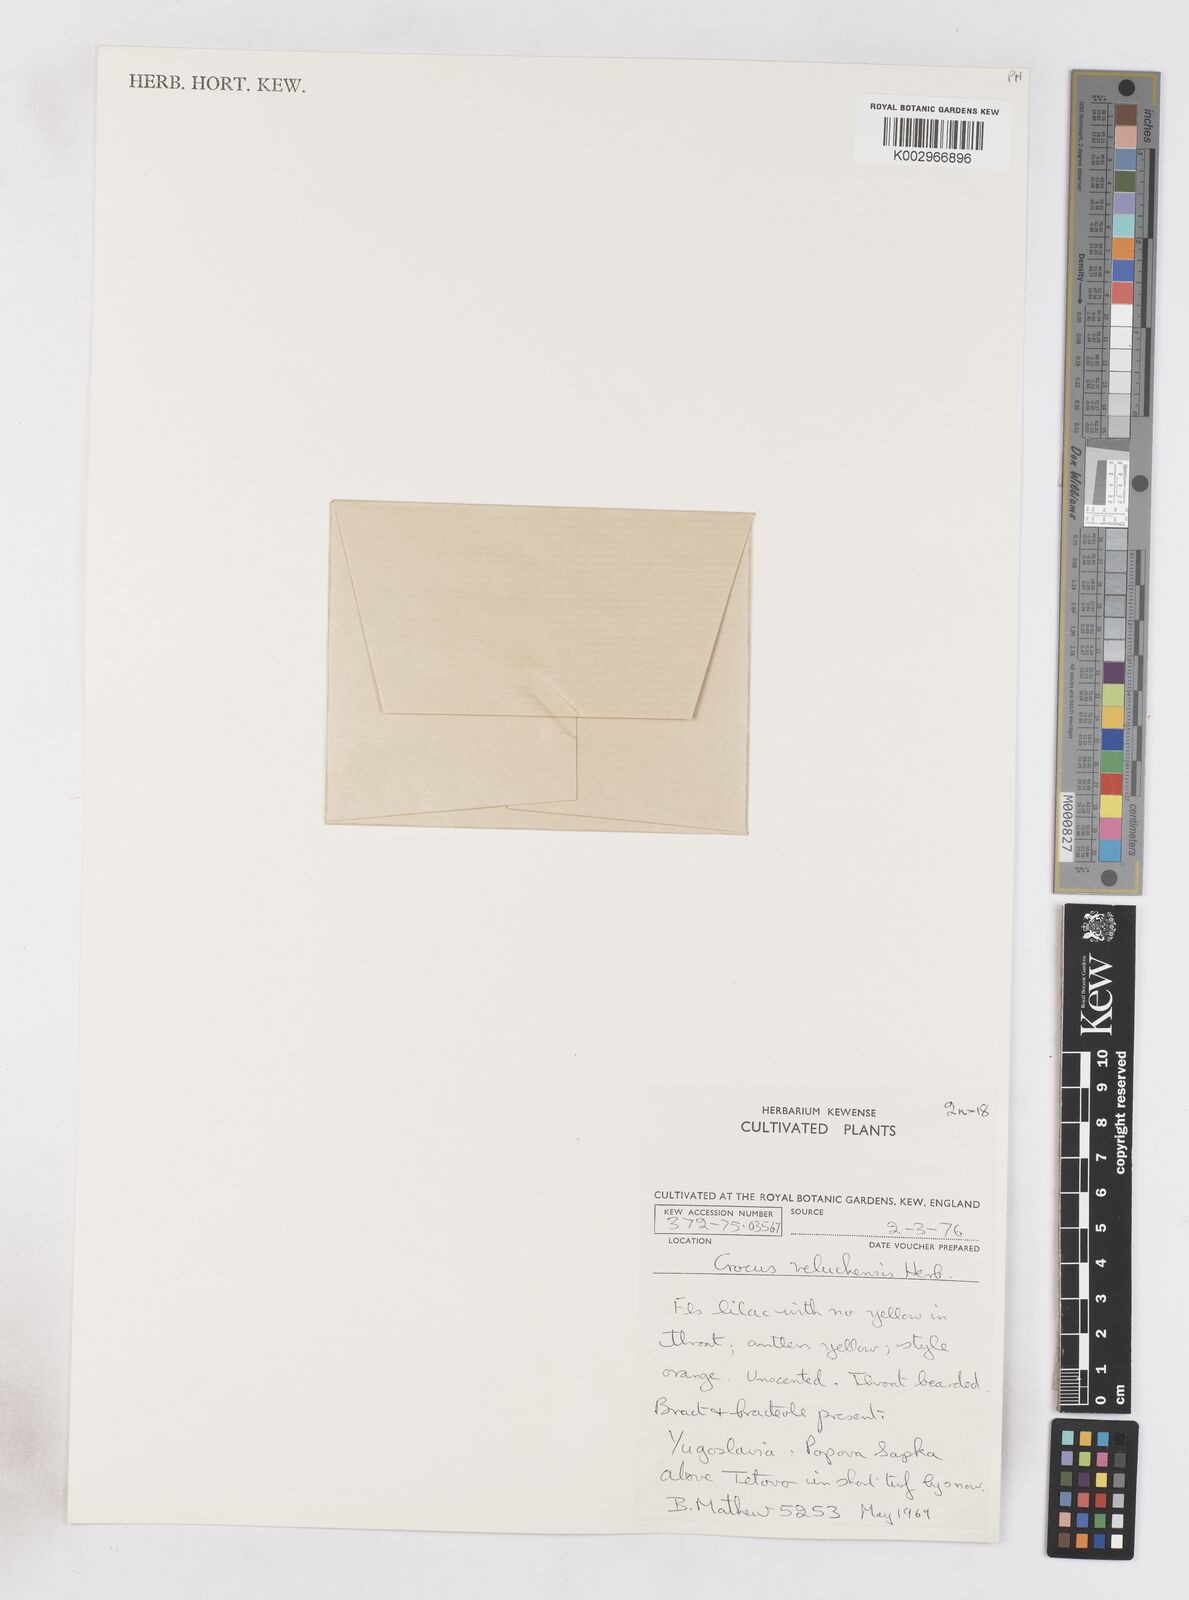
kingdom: Plantae
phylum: Tracheophyta
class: Liliopsida
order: Asparagales
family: Iridaceae
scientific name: Iridaceae
